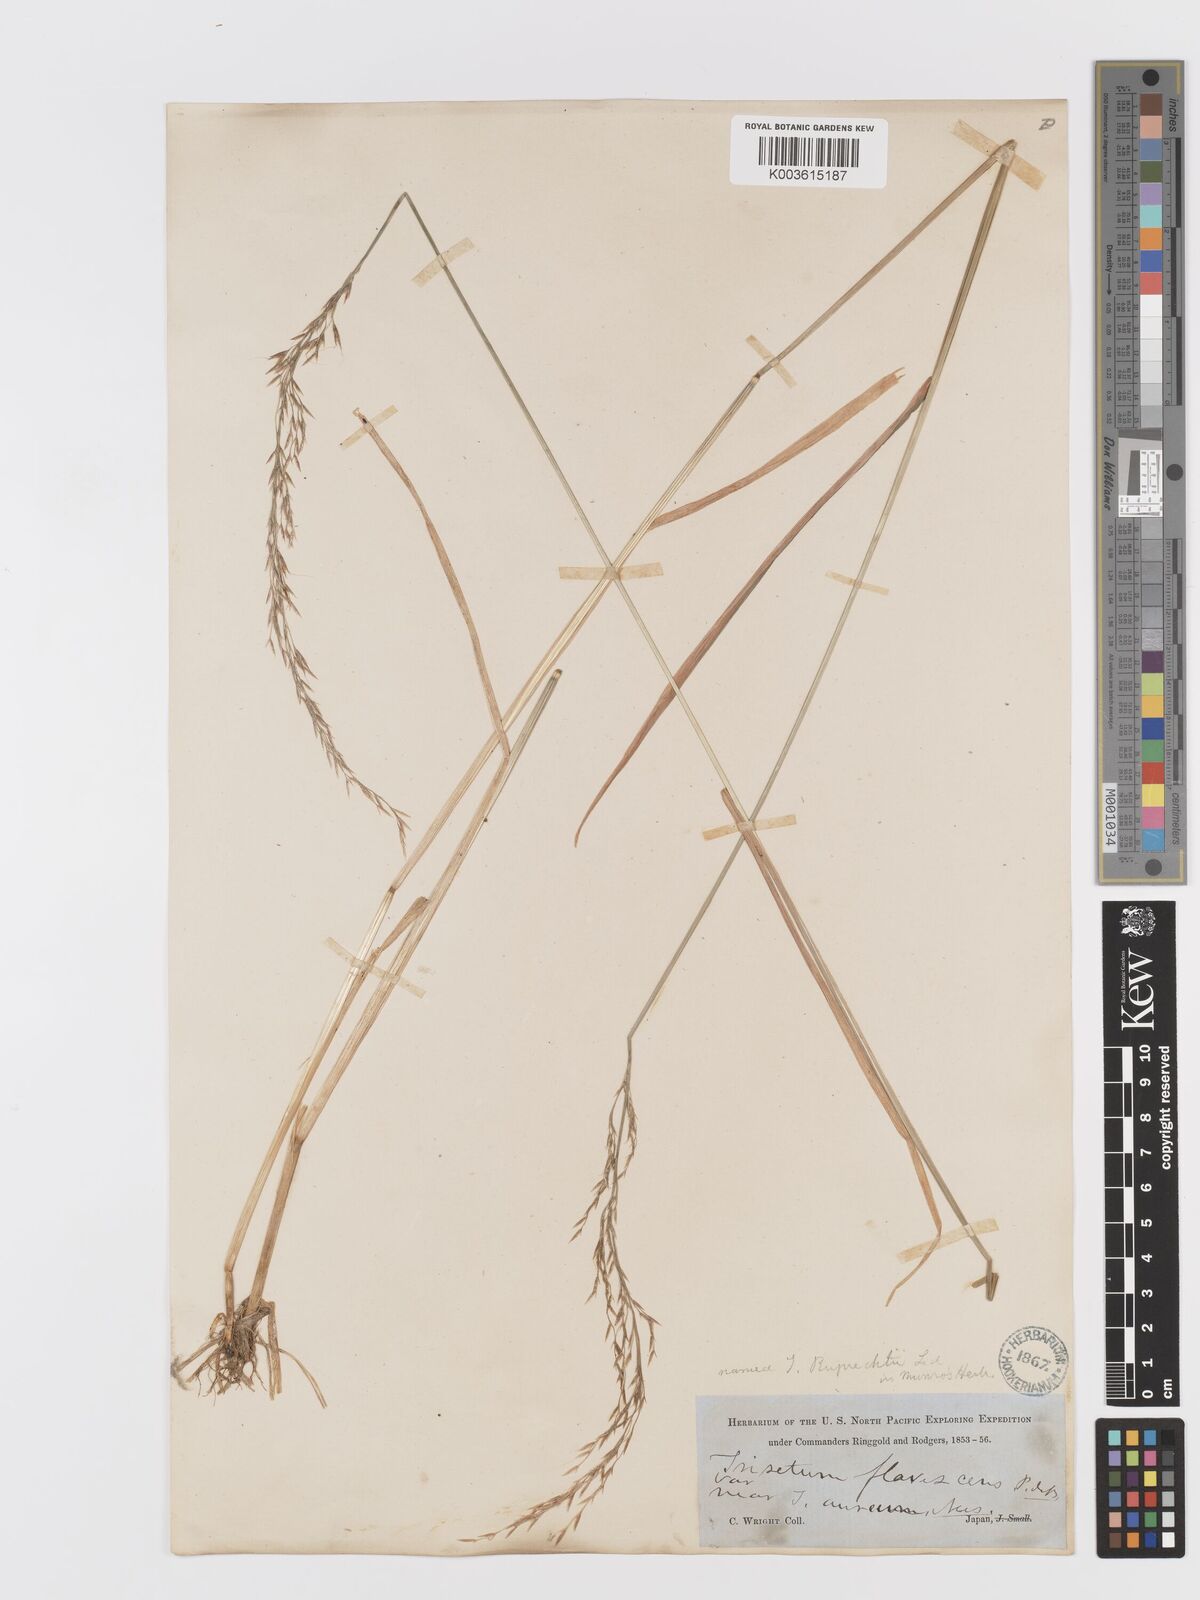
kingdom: Plantae
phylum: Tracheophyta
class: Liliopsida
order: Poales
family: Poaceae
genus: Sibirotrisetum
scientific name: Sibirotrisetum bifidum
